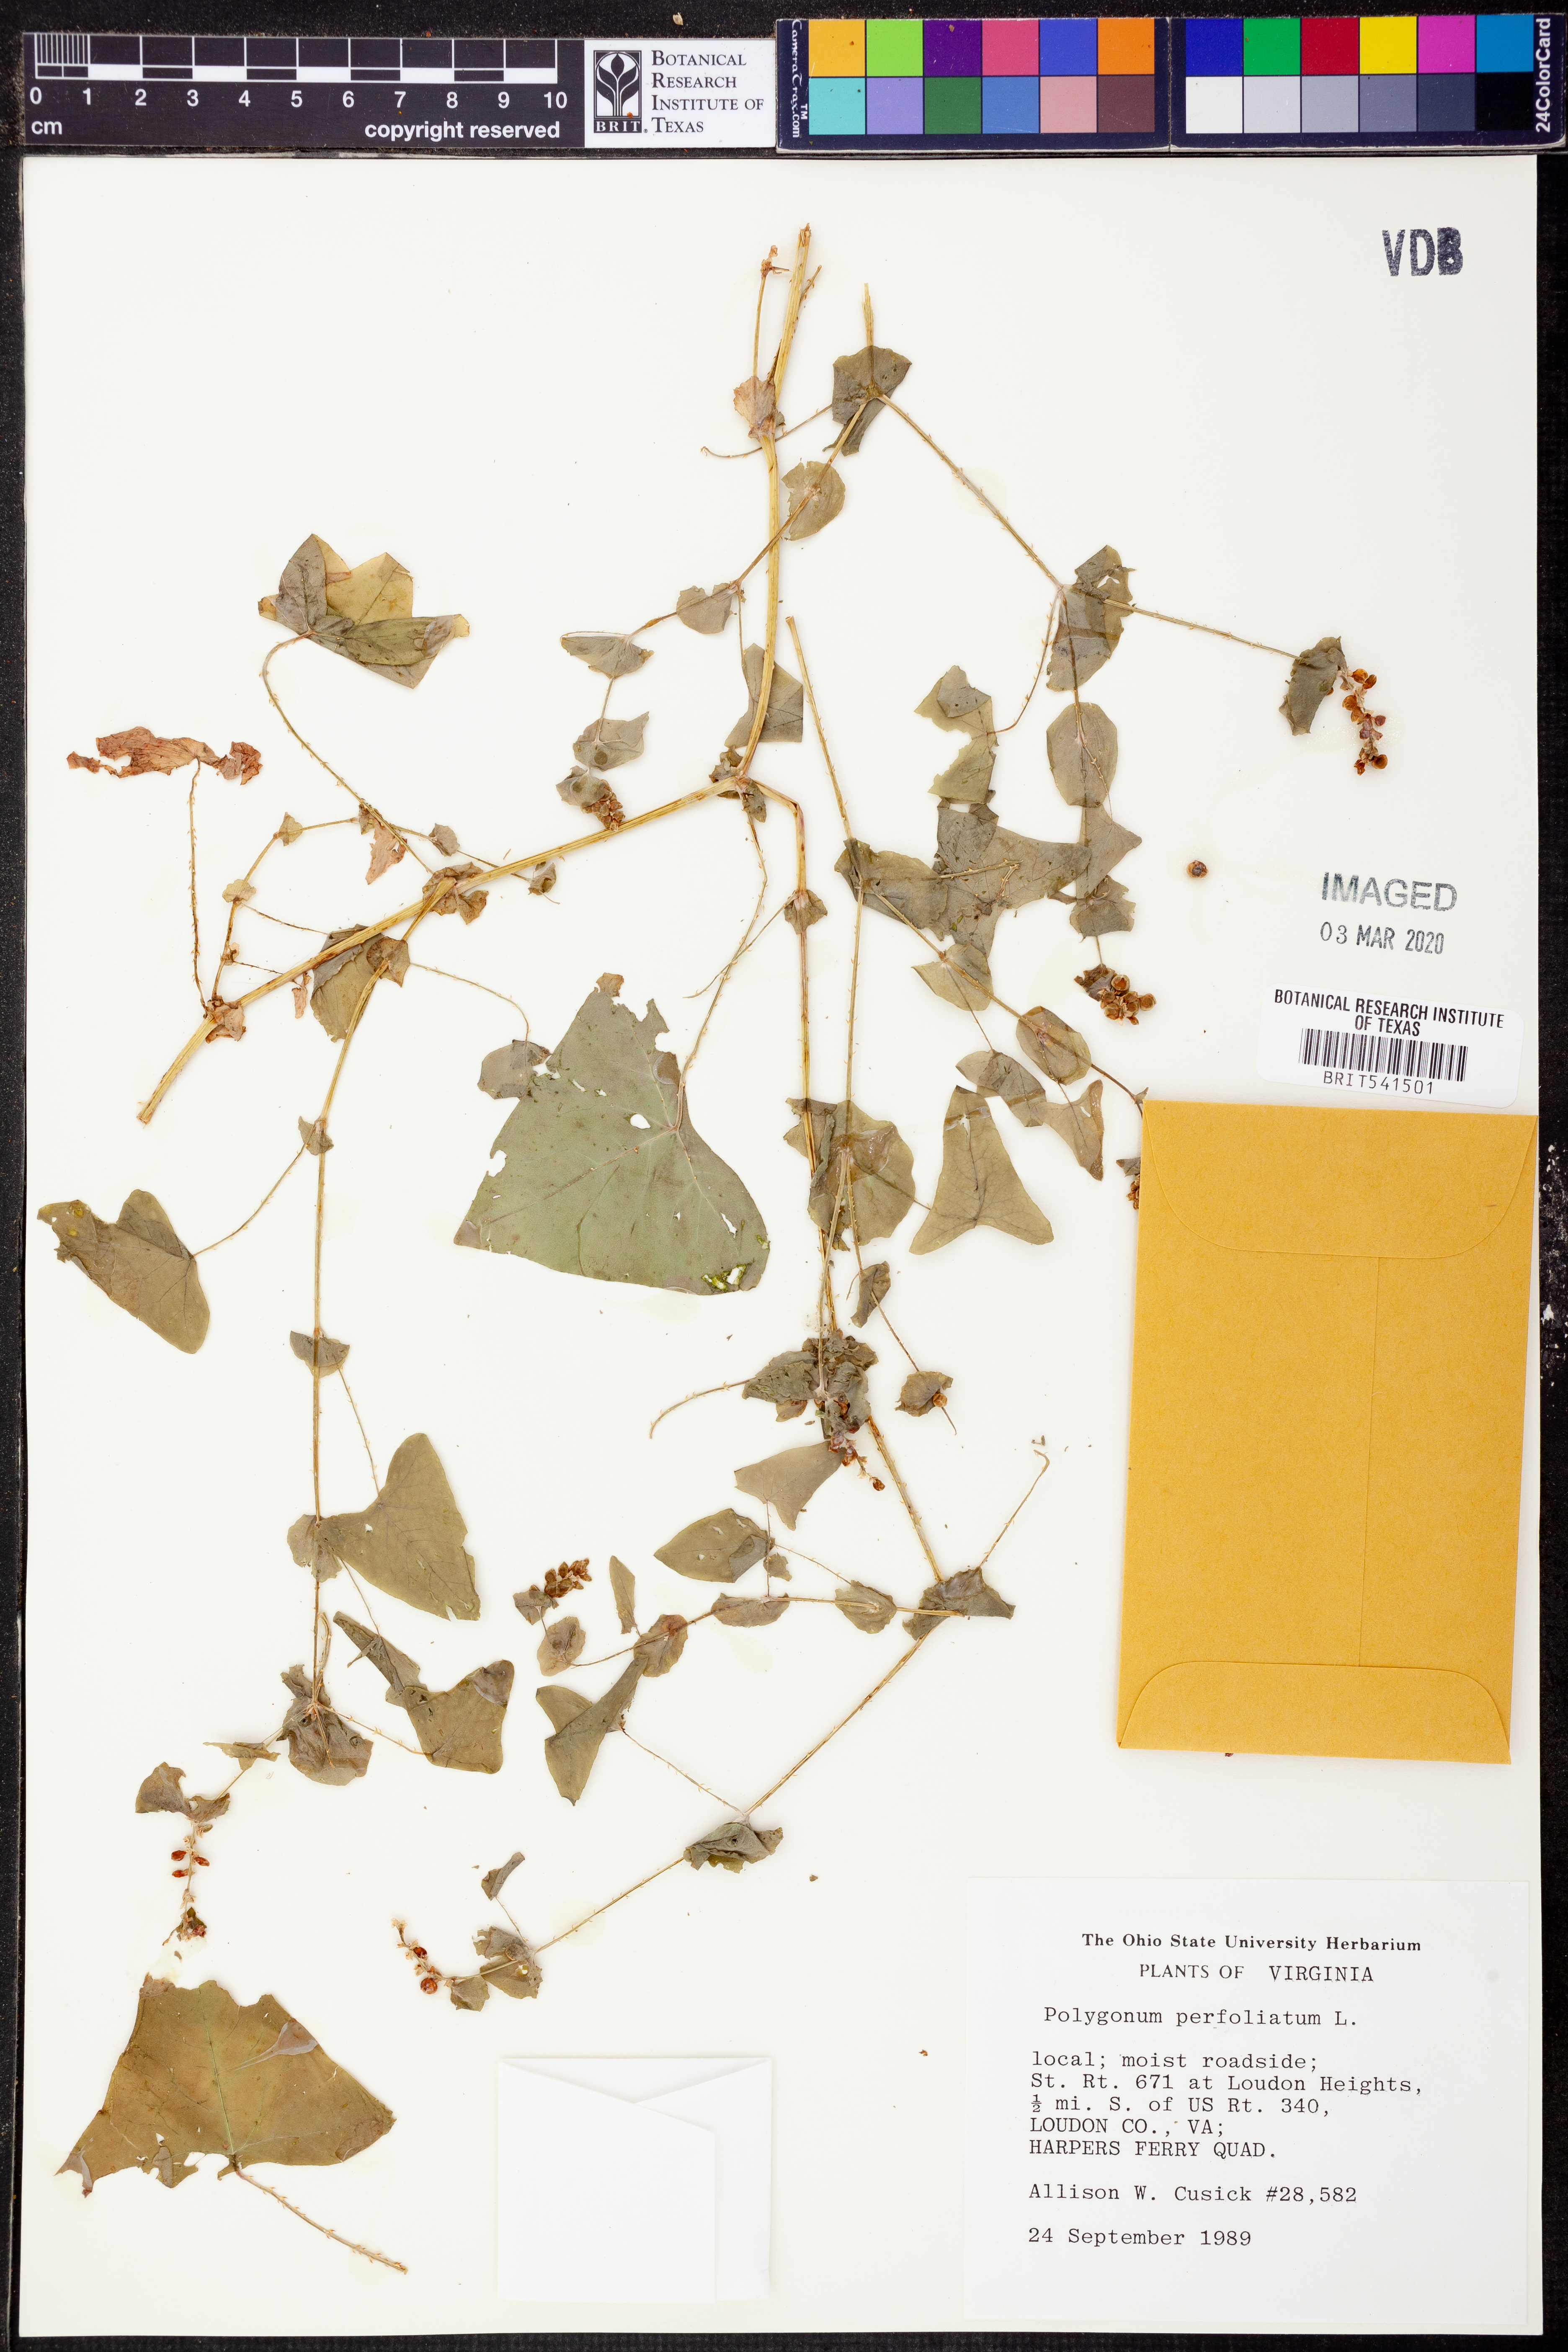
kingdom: Plantae
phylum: Tracheophyta
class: Magnoliopsida
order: Caryophyllales
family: Polygonaceae
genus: Persicaria
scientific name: Persicaria perfoliata
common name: Asiatic tearthumb
